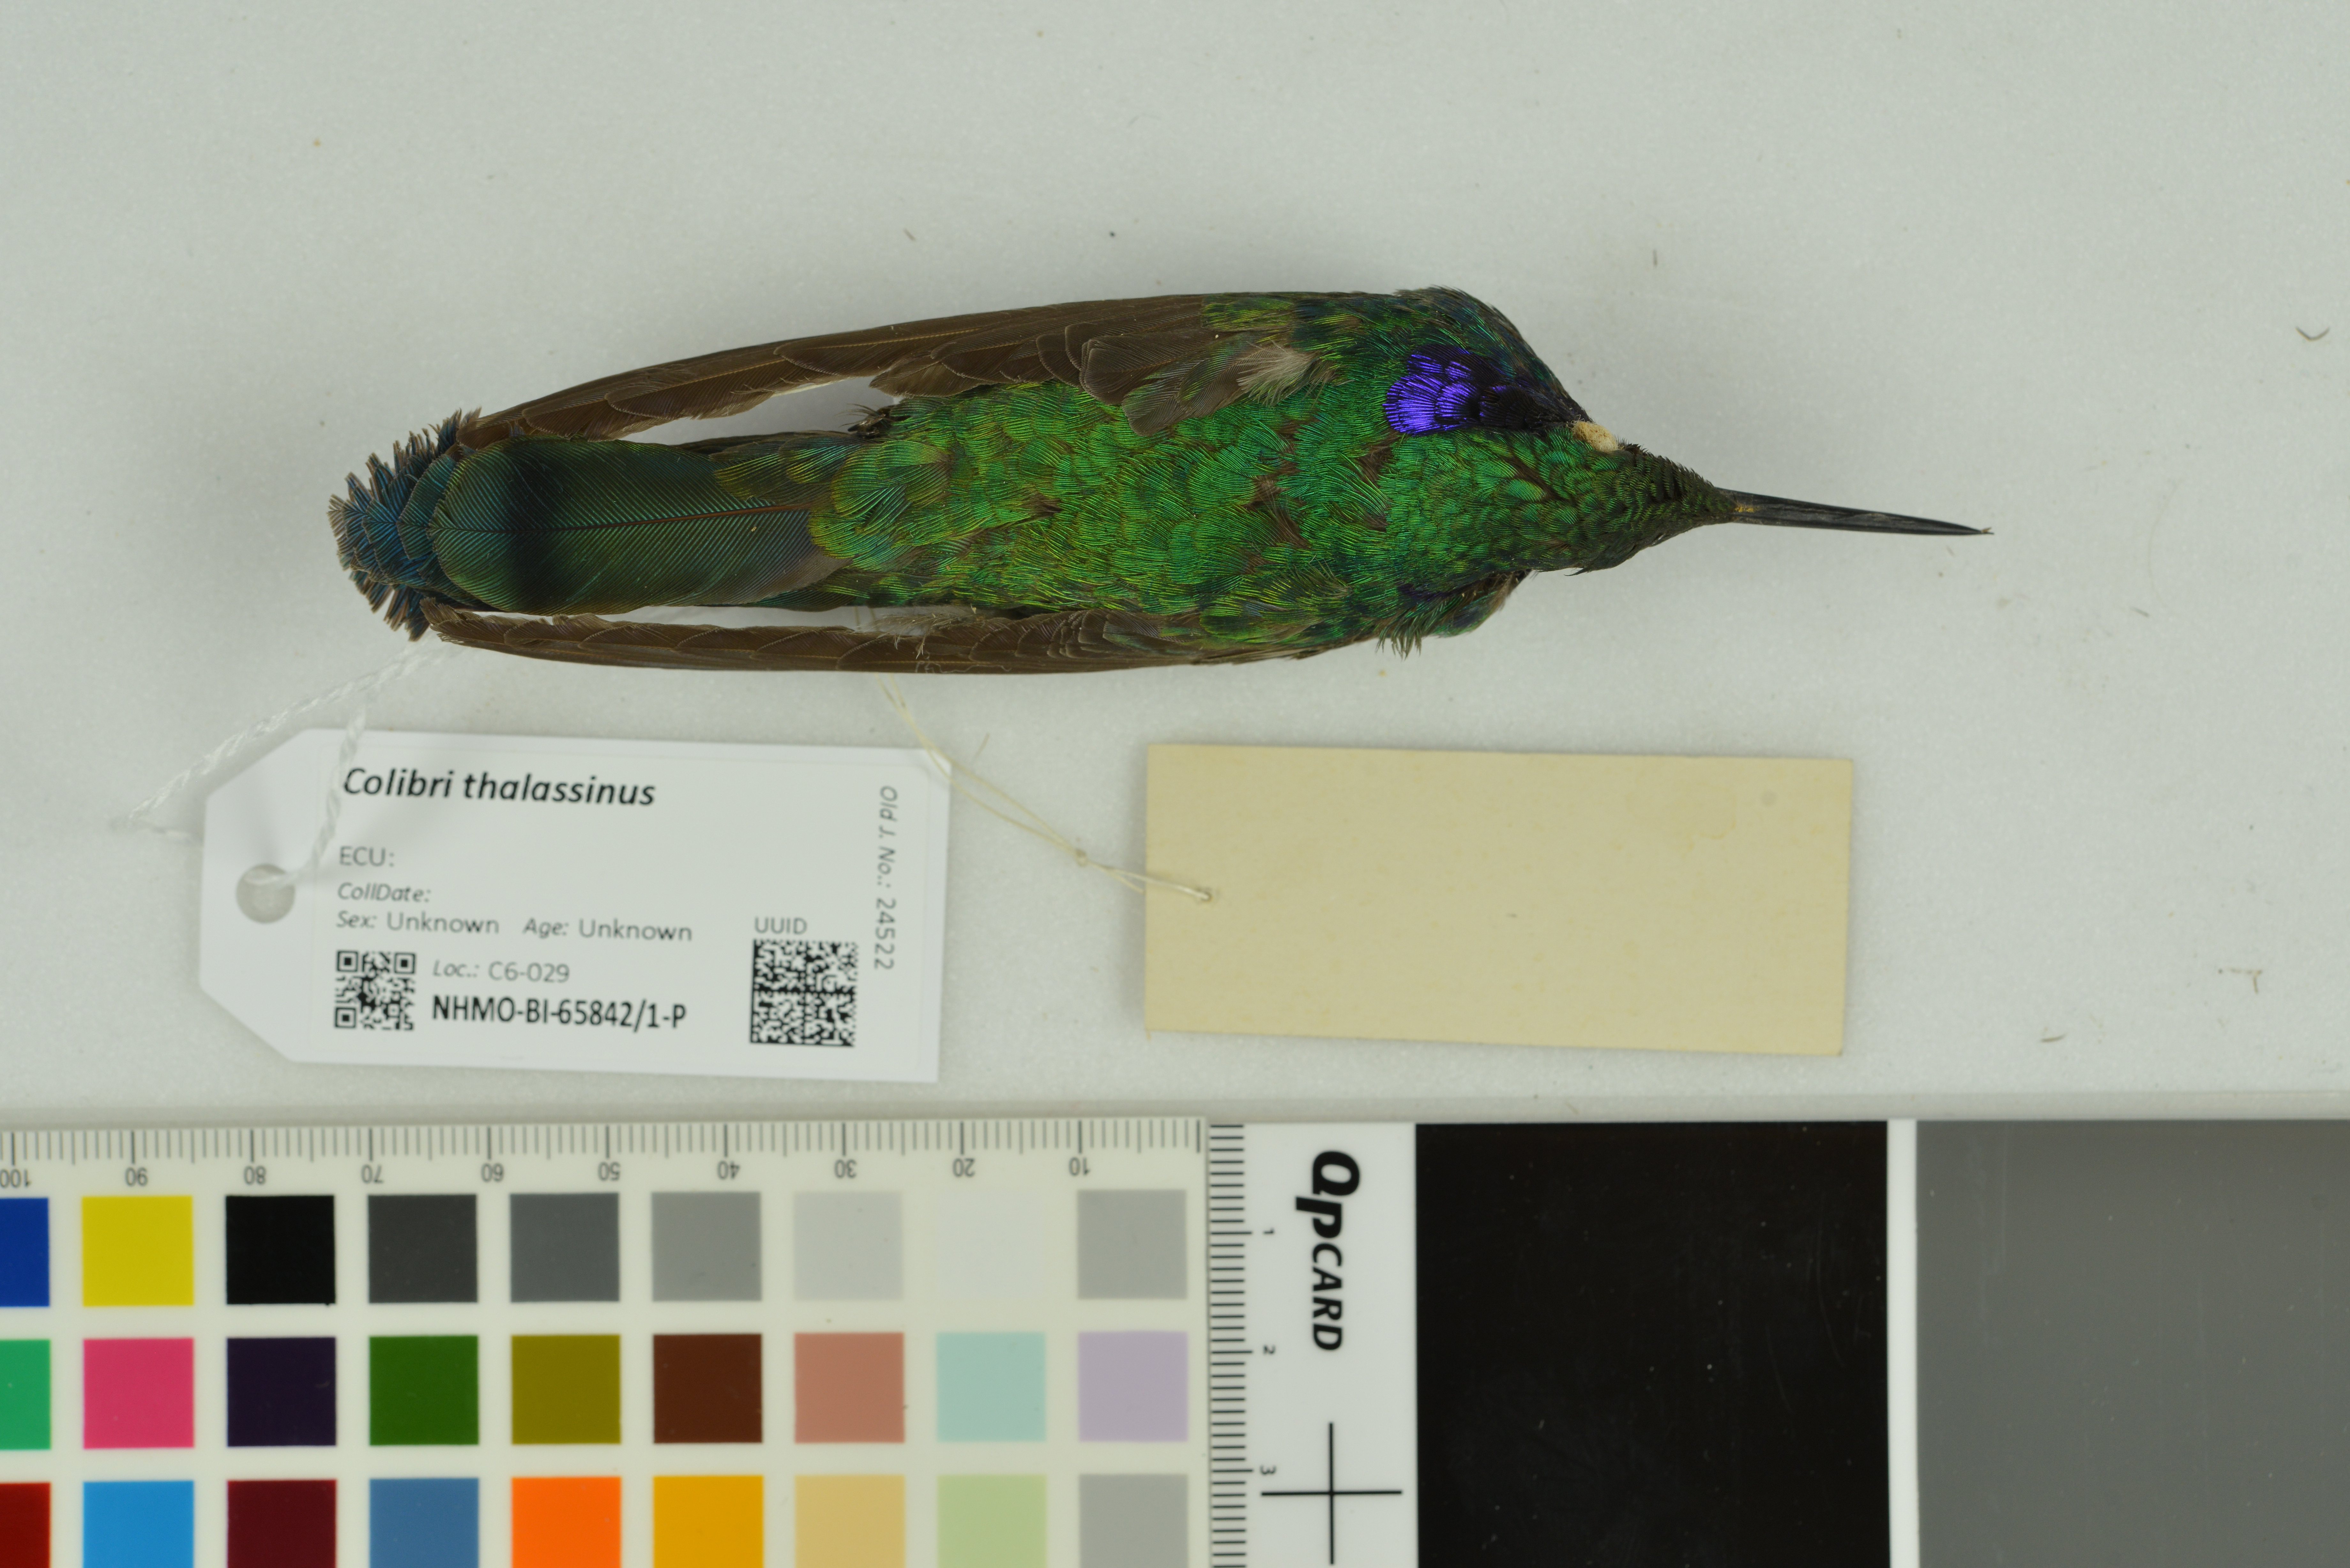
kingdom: Animalia
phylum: Chordata
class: Aves
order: Apodiformes
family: Trochilidae
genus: Colibri
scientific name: Colibri thalassinus
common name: Green violetear
